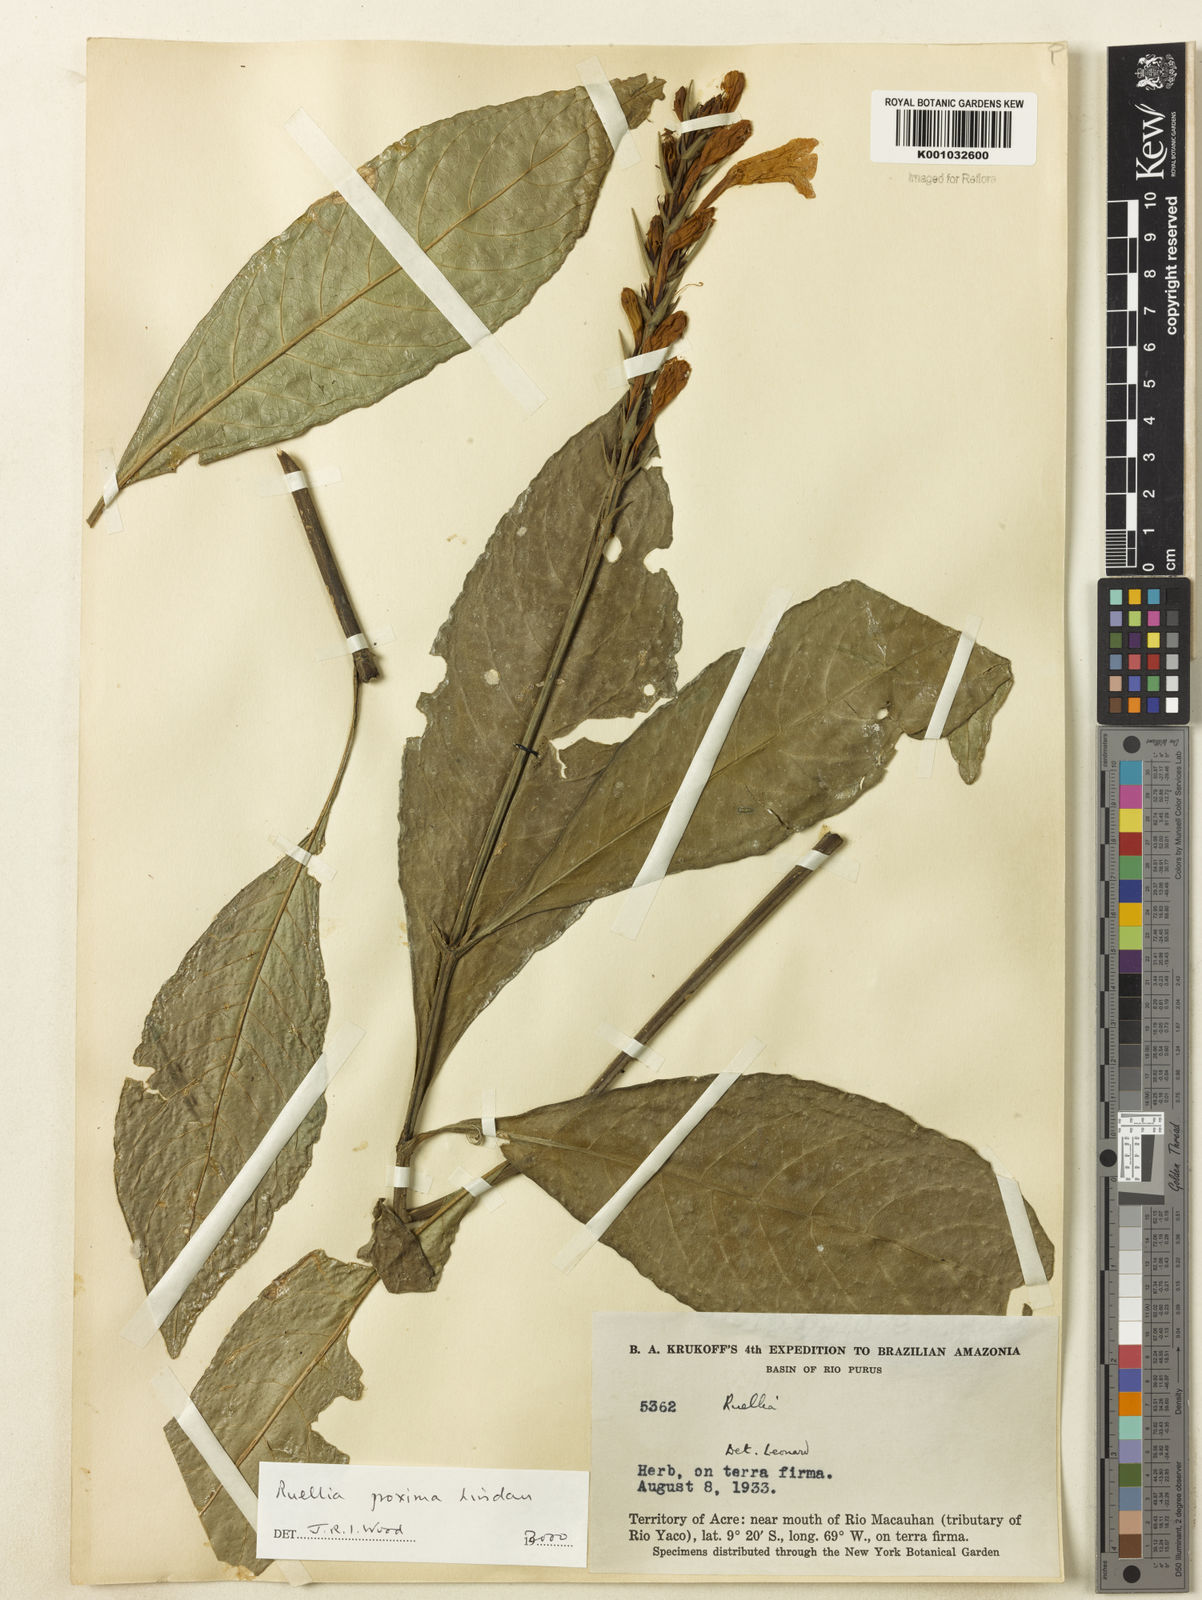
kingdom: Plantae
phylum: Tracheophyta
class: Magnoliopsida
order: Lamiales
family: Acanthaceae
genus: Ruellia
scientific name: Ruellia proxima
